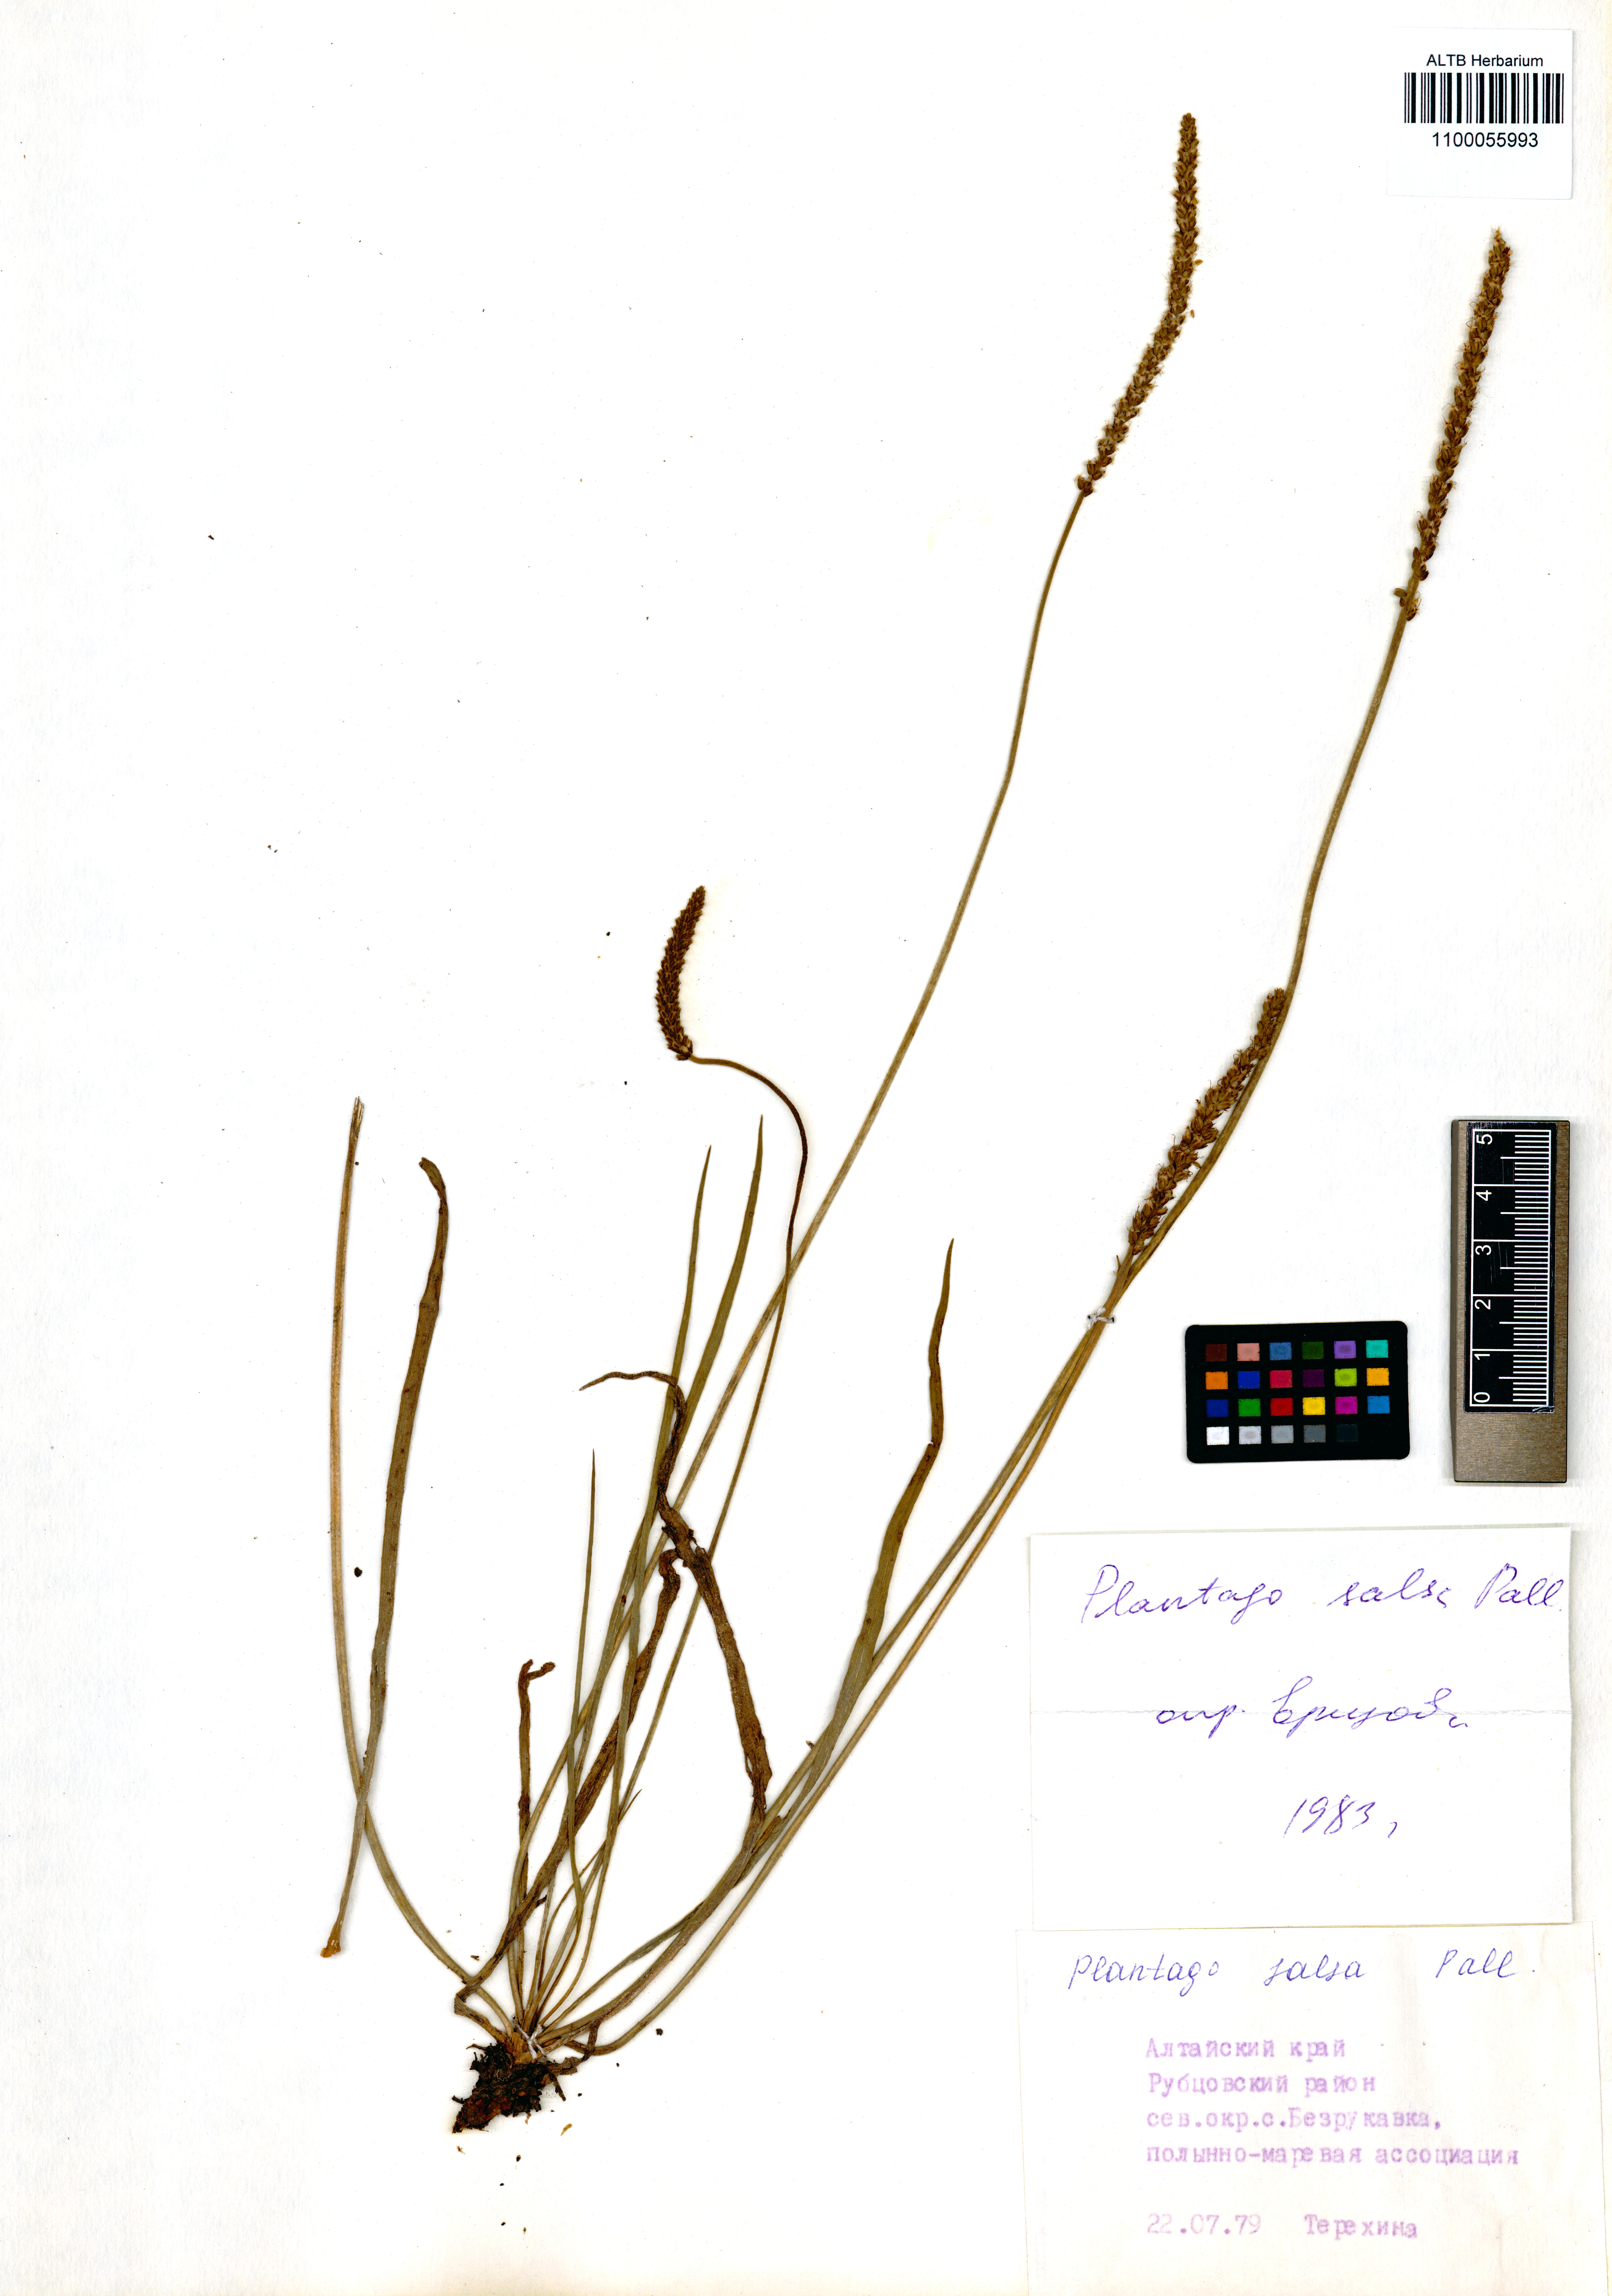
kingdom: Plantae
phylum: Tracheophyta
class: Magnoliopsida
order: Lamiales
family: Plantaginaceae
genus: Plantago
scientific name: Plantago salsa
